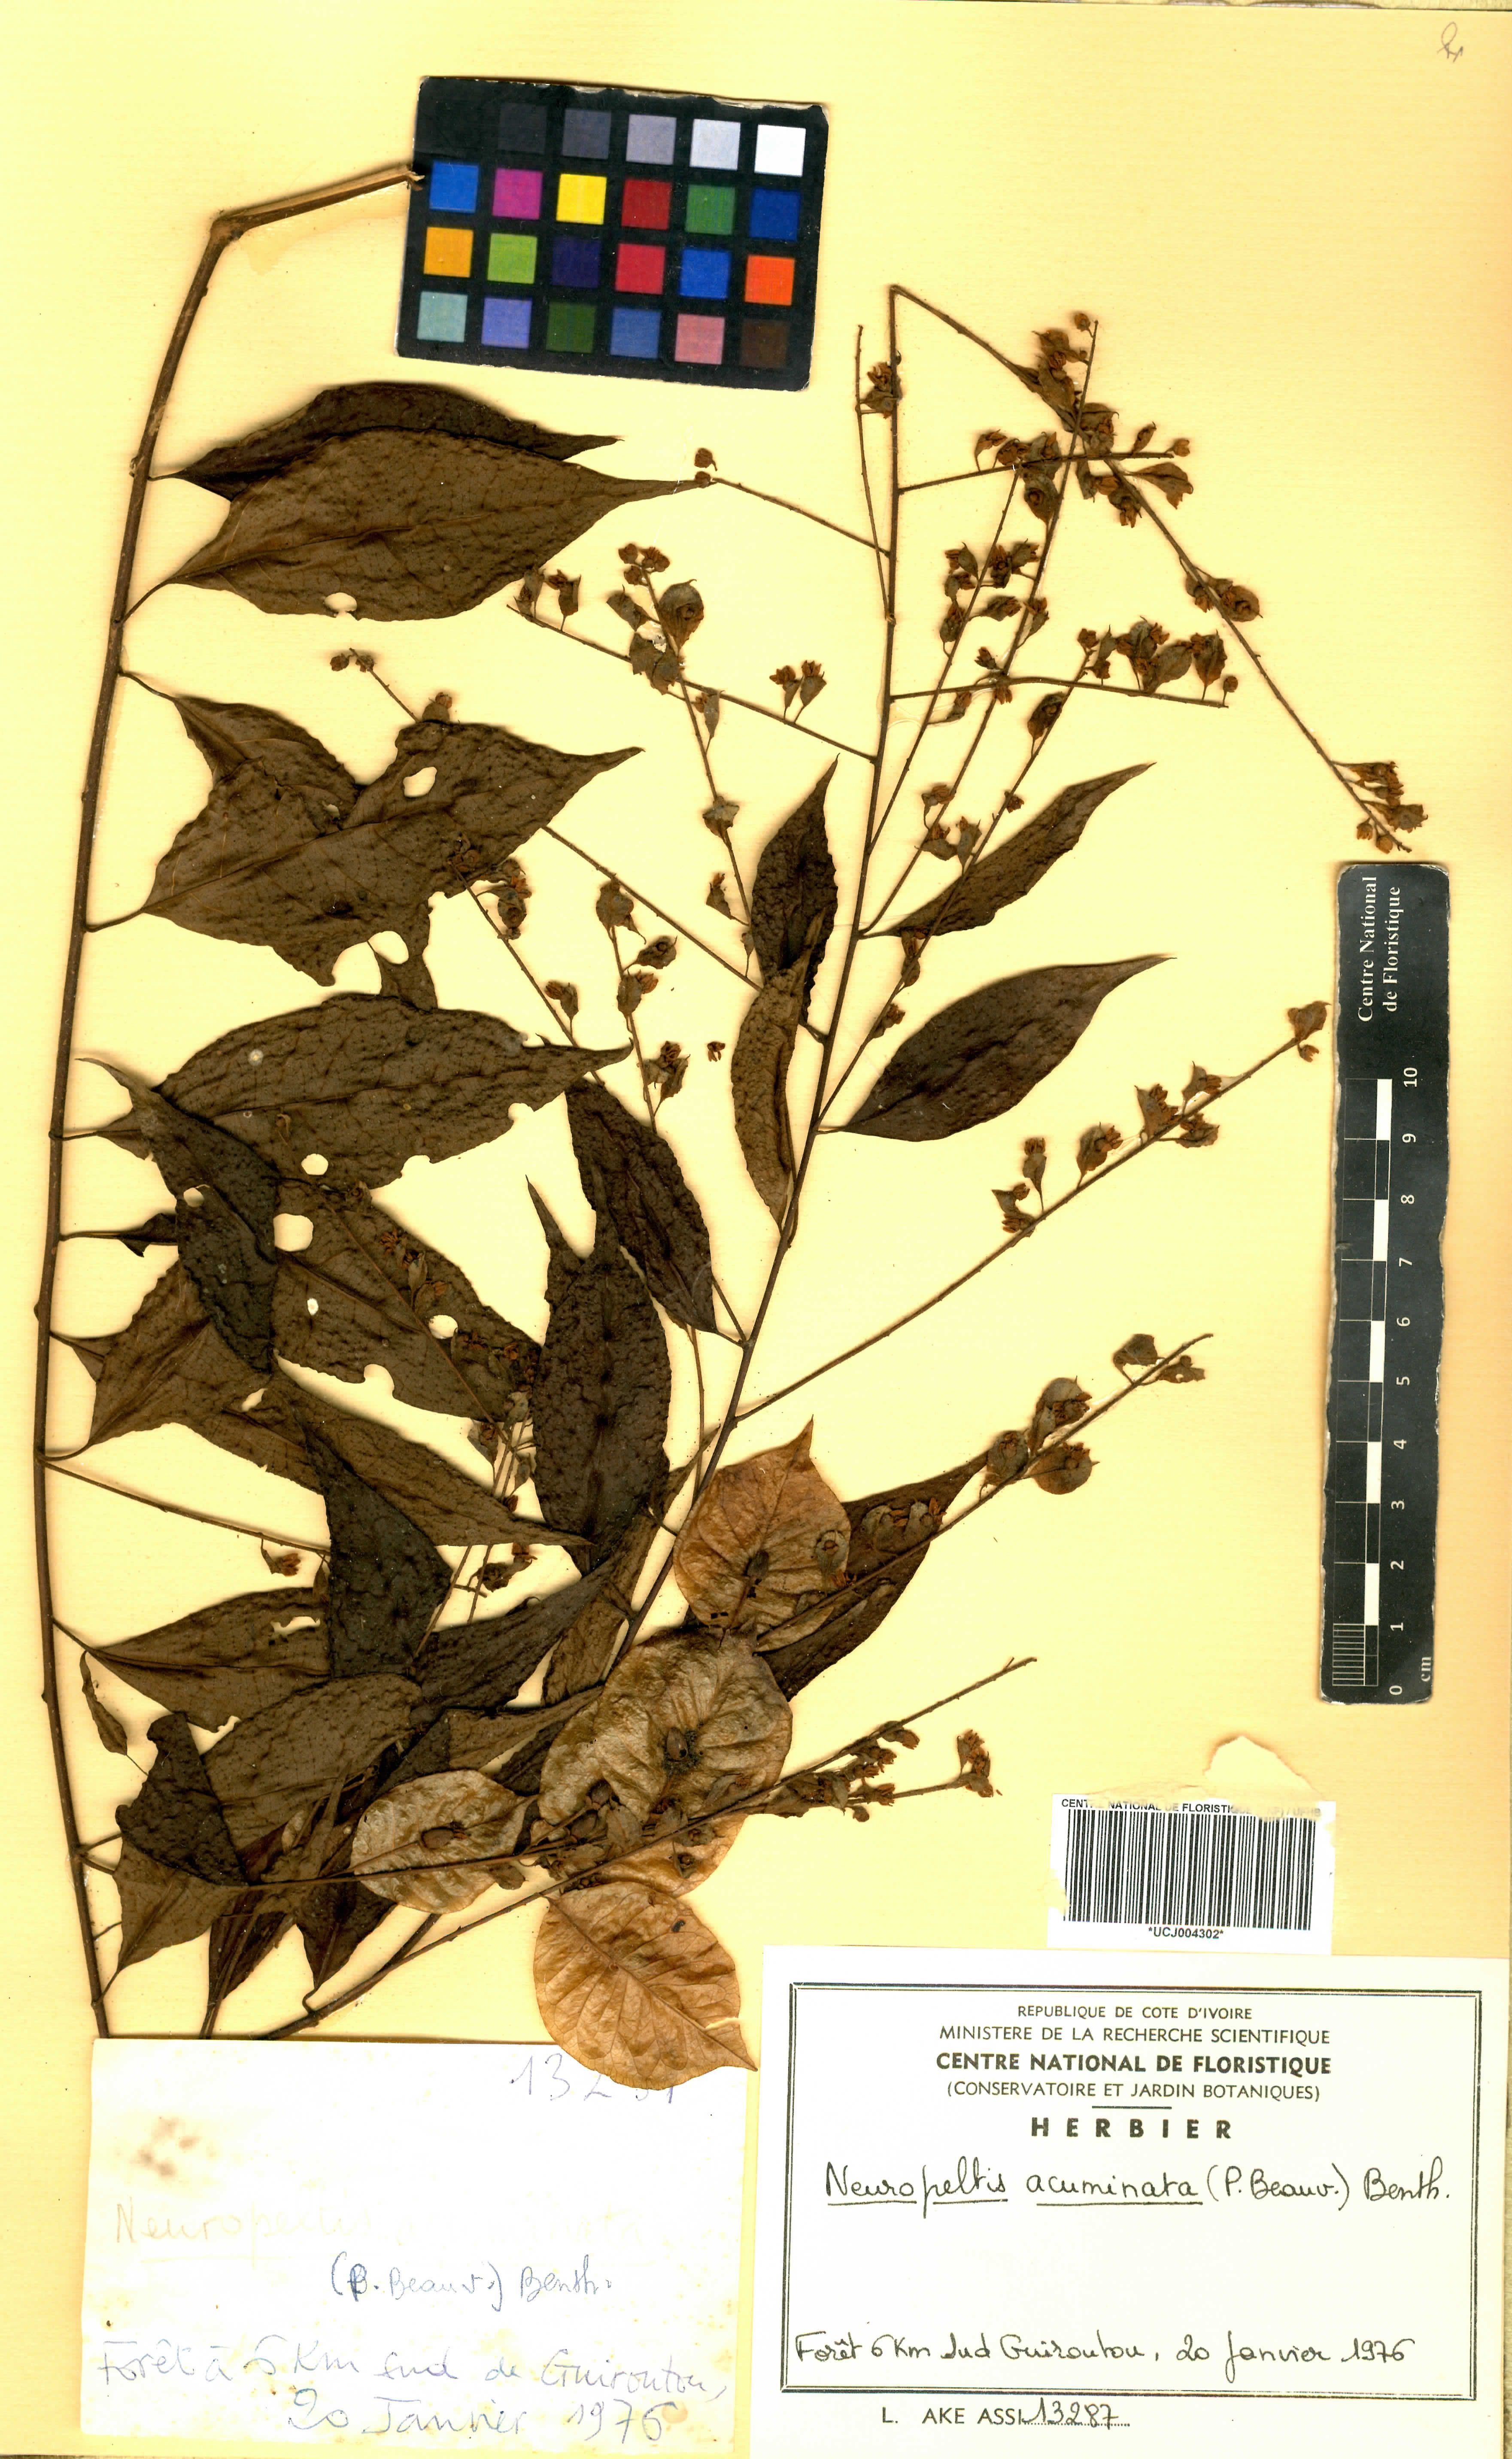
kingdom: Plantae
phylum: Tracheophyta
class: Magnoliopsida
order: Solanales
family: Convolvulaceae
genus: Neuropeltis
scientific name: Neuropeltis acuminata
